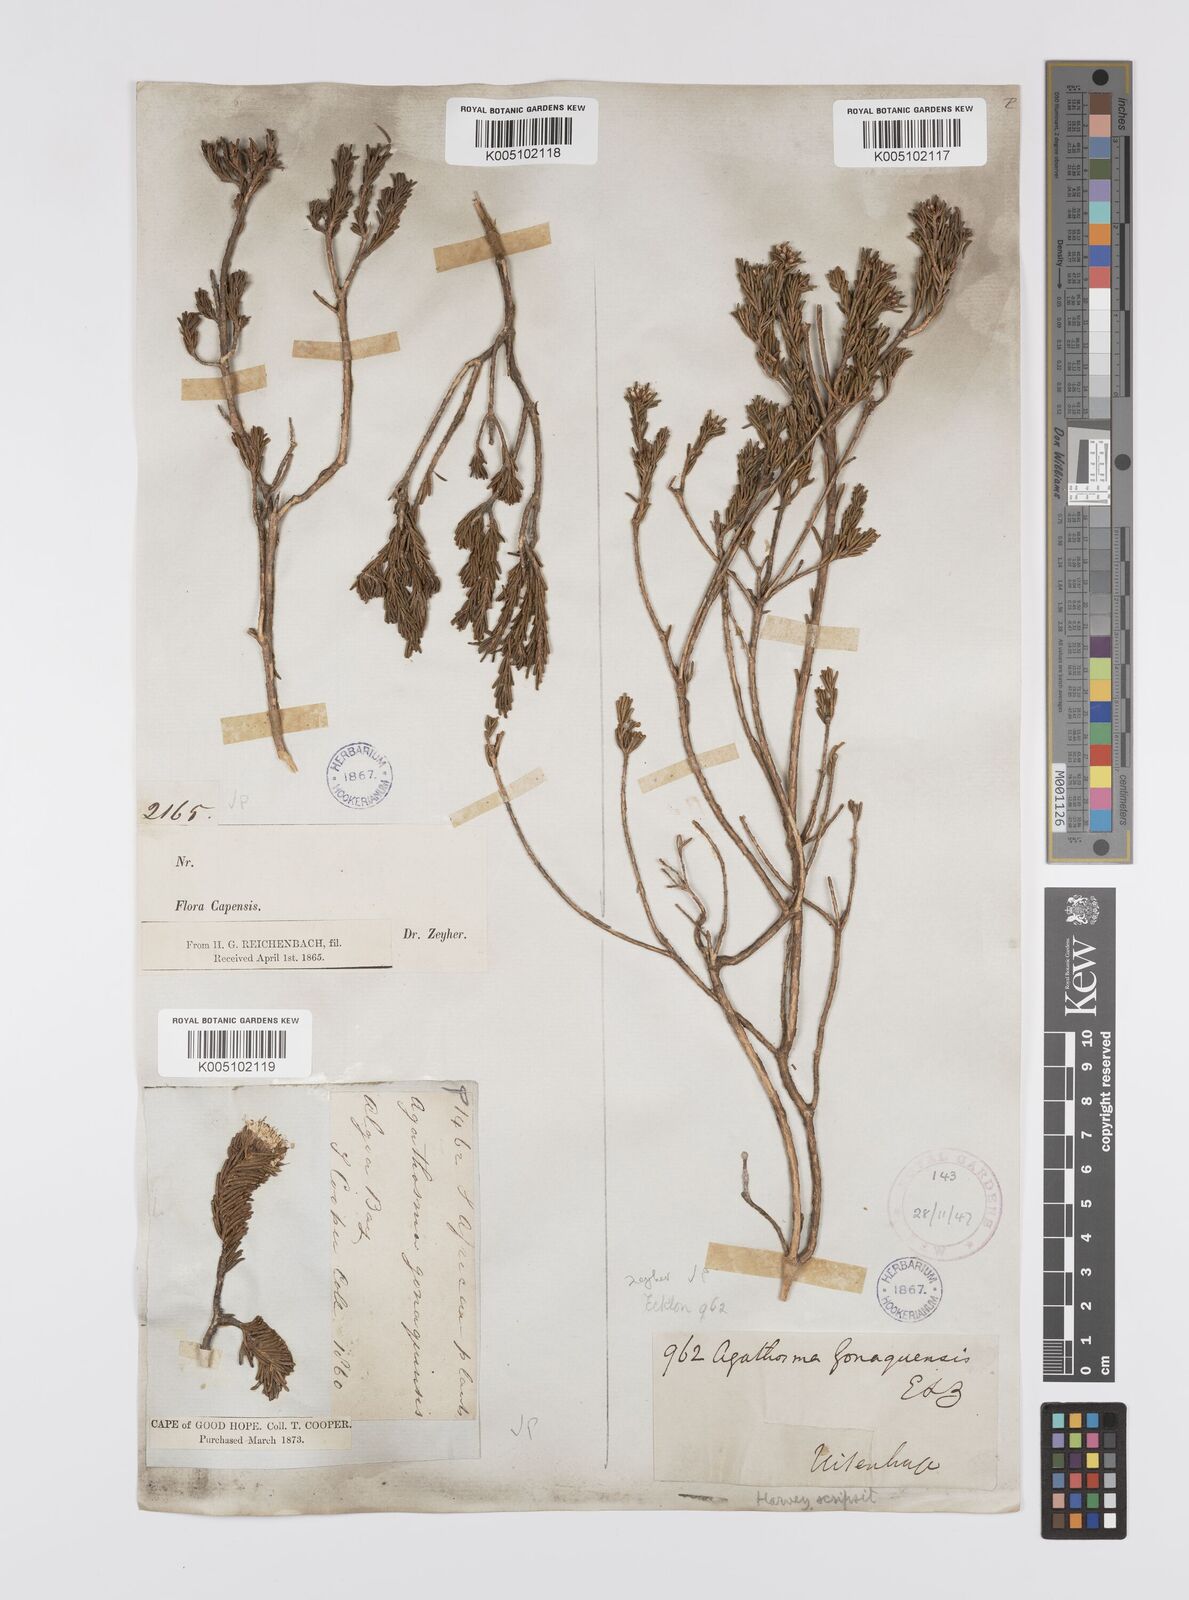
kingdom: Plantae
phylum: Tracheophyta
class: Magnoliopsida
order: Sapindales
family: Rutaceae
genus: Agathosma
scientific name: Agathosma gonaquensis
